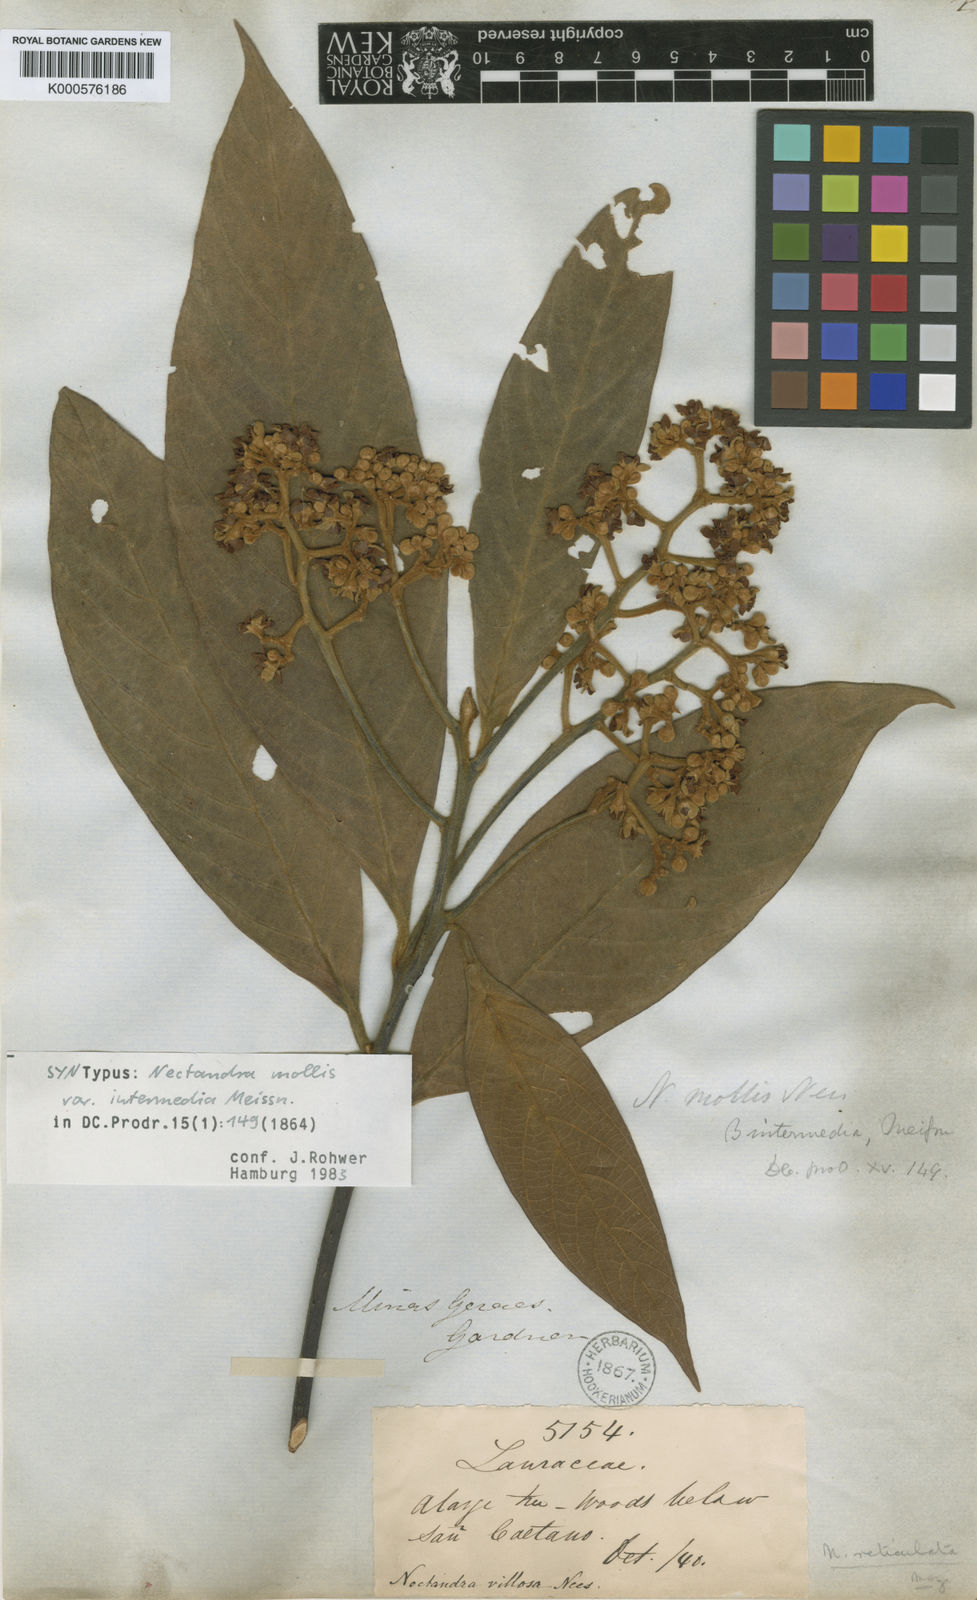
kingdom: Plantae
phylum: Tracheophyta
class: Magnoliopsida
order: Laurales
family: Lauraceae
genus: Nectandra
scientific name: Nectandra villosa
